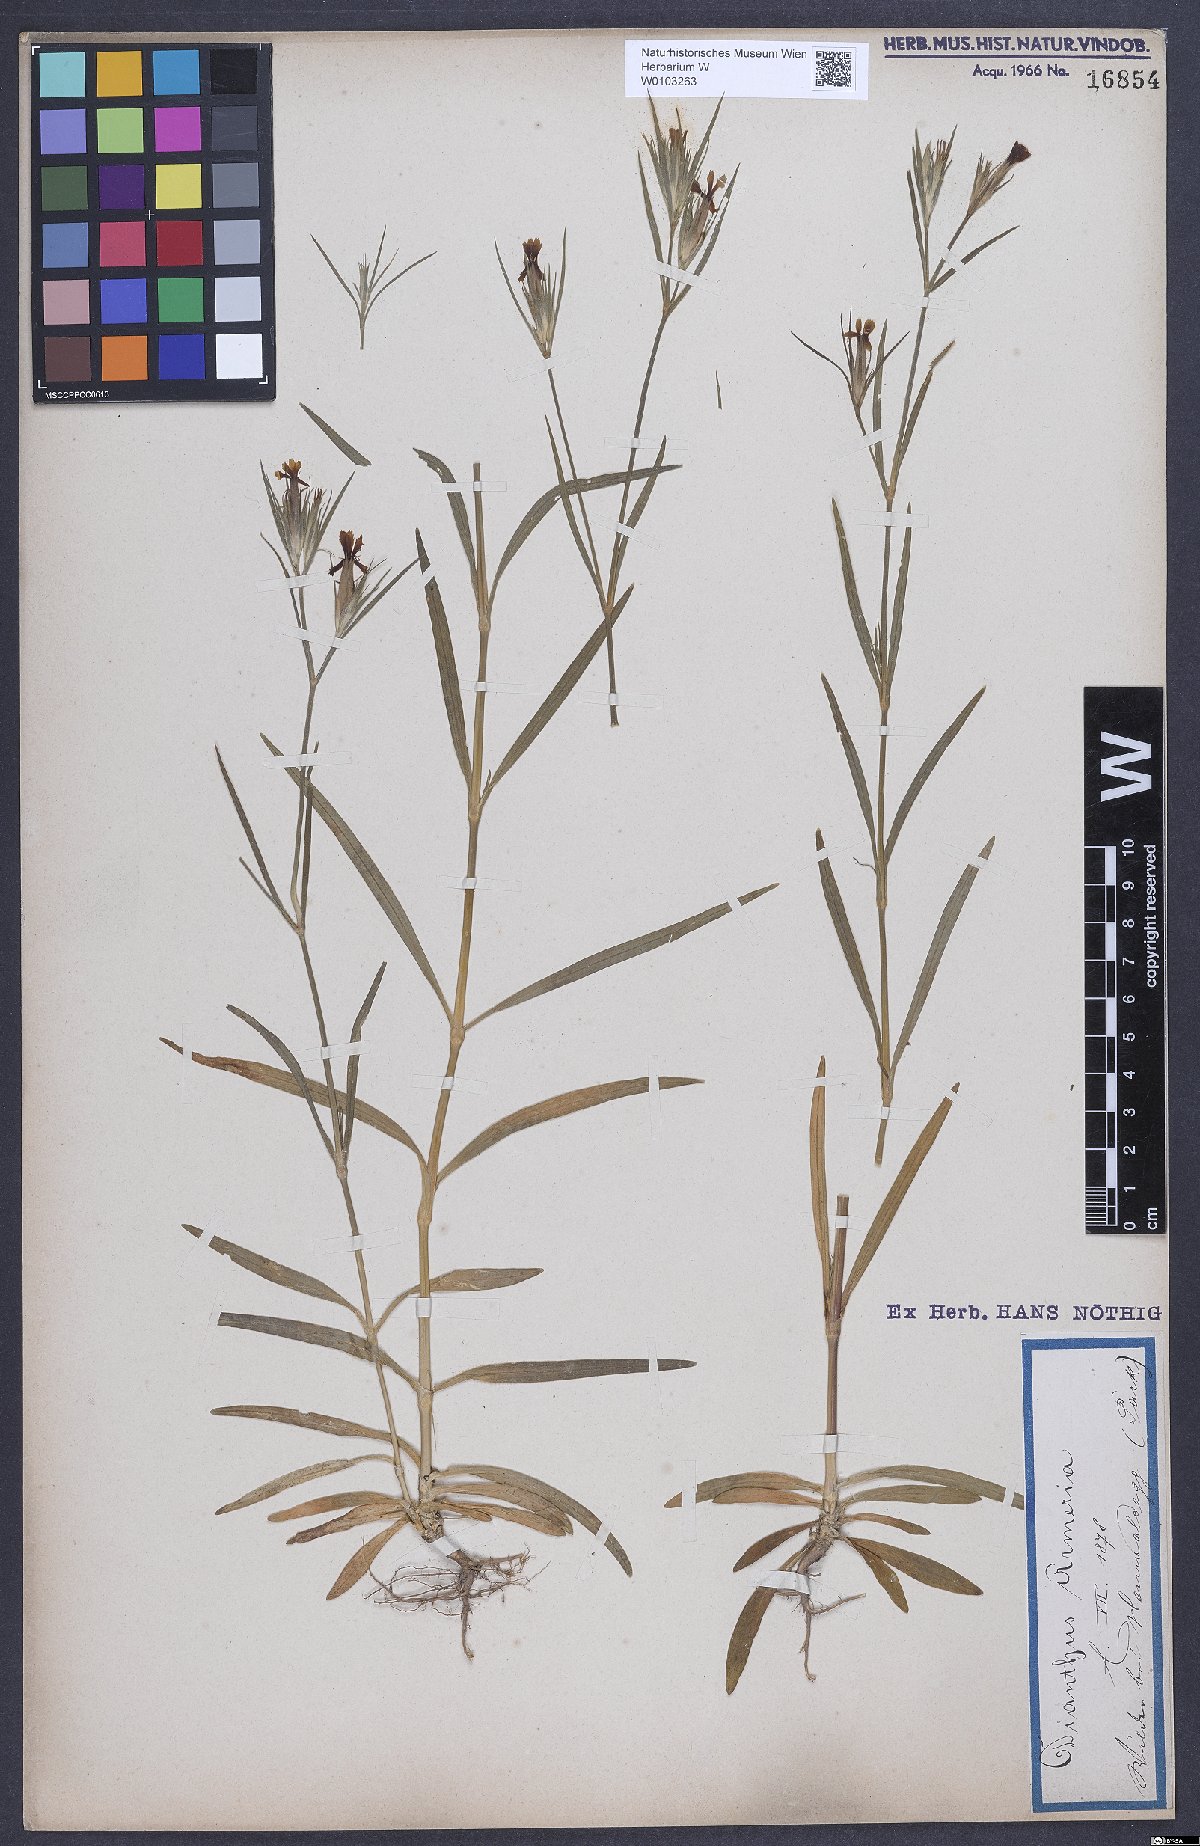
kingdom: Plantae
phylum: Tracheophyta
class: Magnoliopsida
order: Caryophyllales
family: Caryophyllaceae
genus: Dianthus
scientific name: Dianthus armeria
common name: Deptford pink
